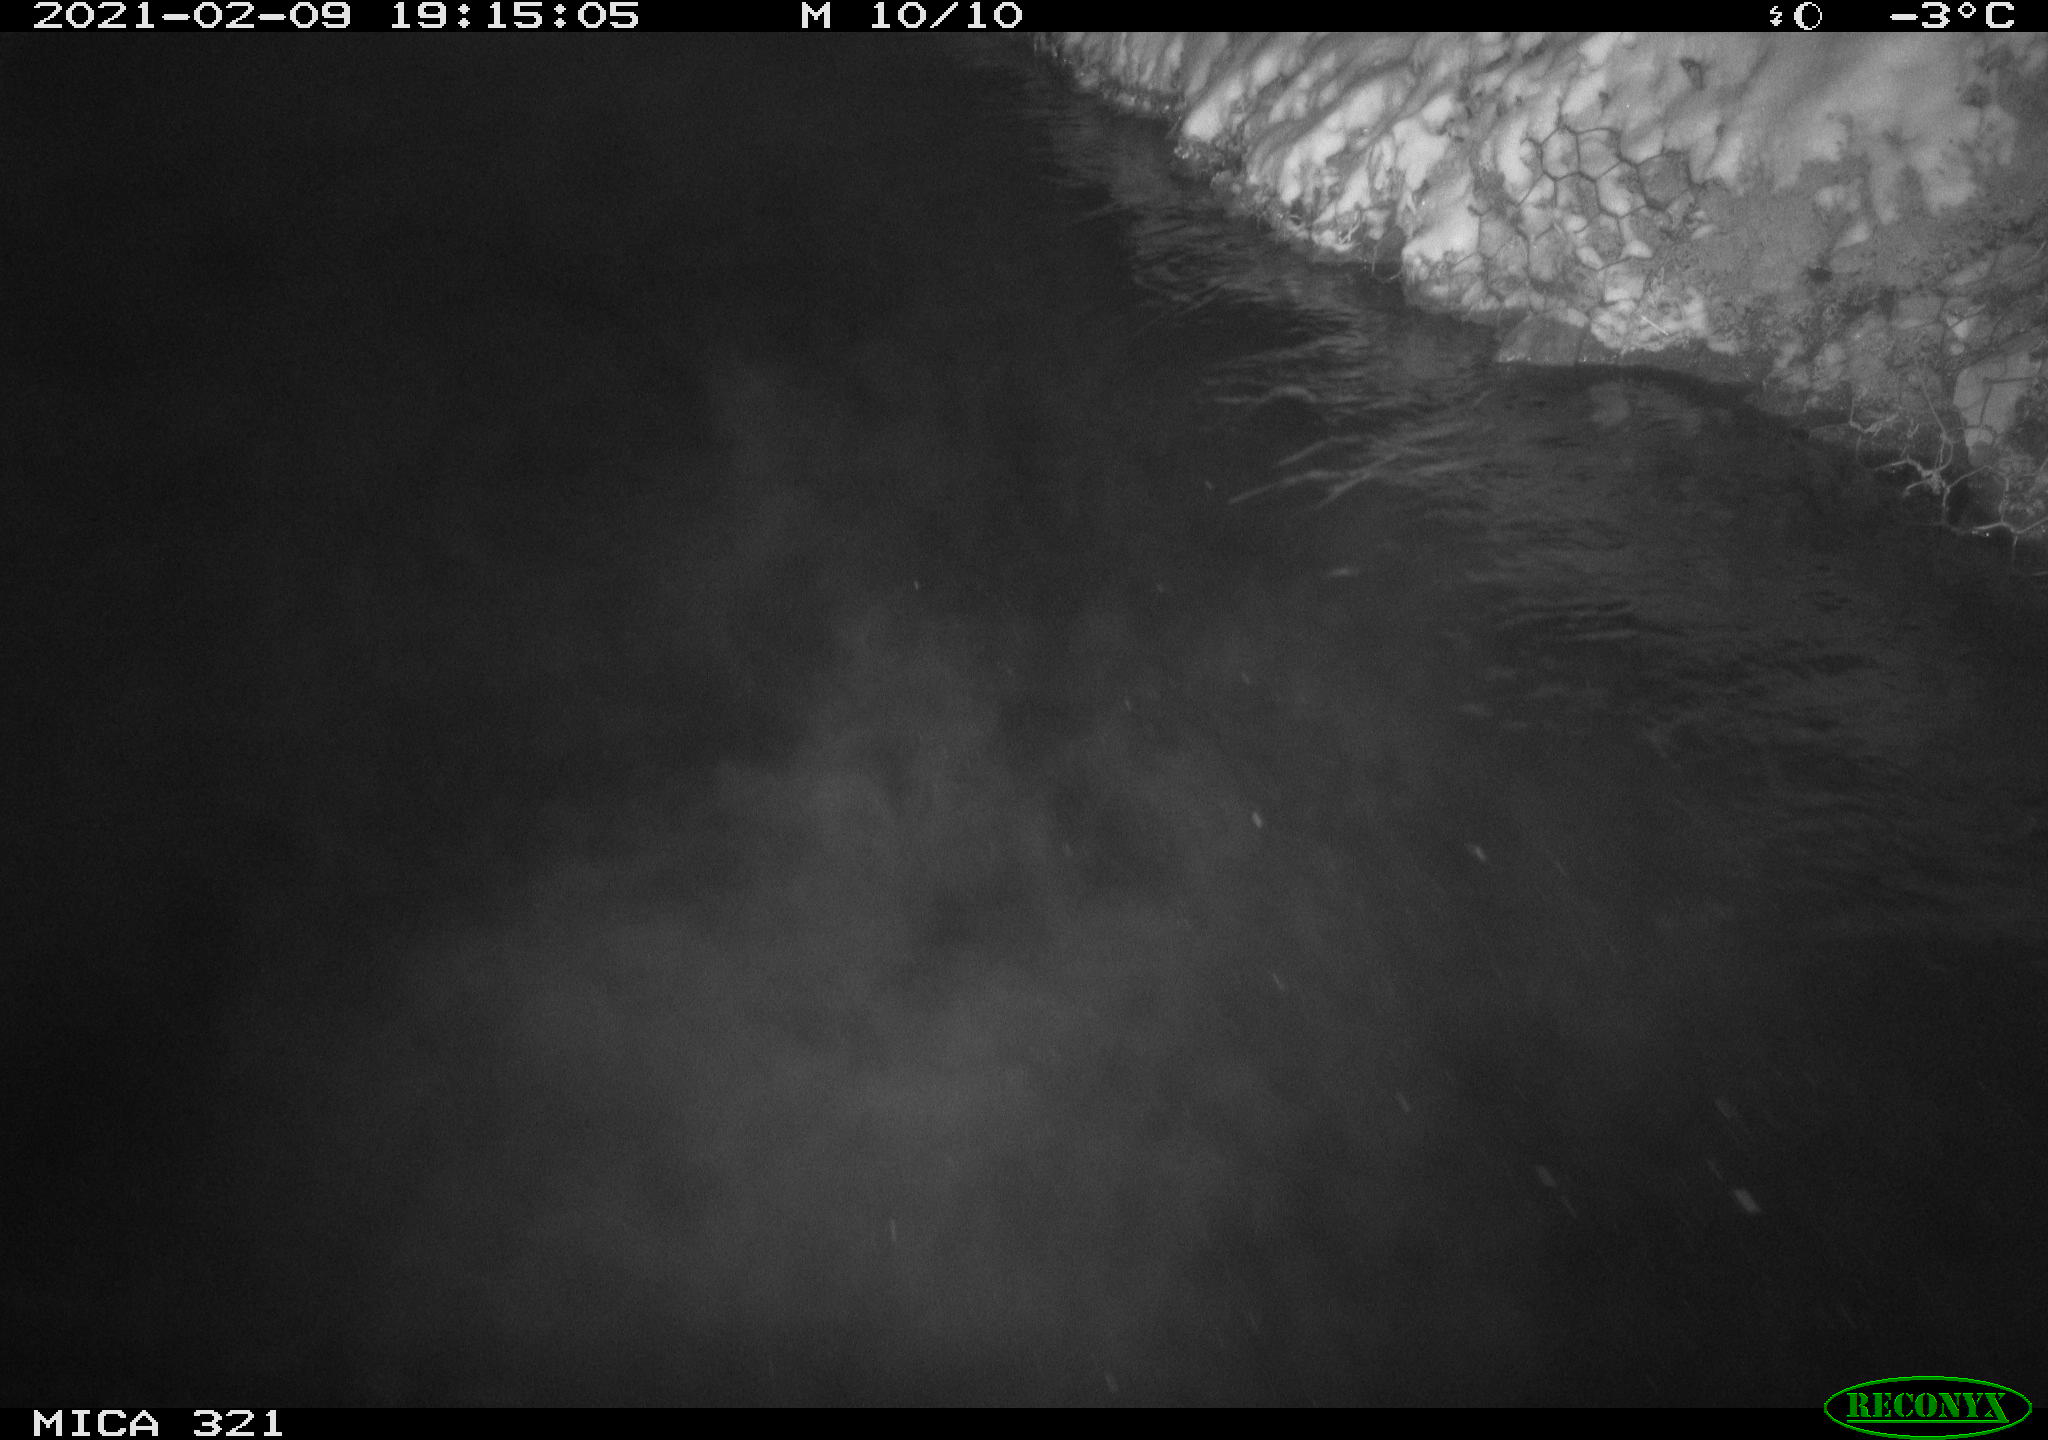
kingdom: Animalia
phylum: Chordata
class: Aves
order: Anseriformes
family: Anatidae
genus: Anas
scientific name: Anas platyrhynchos
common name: Mallard
